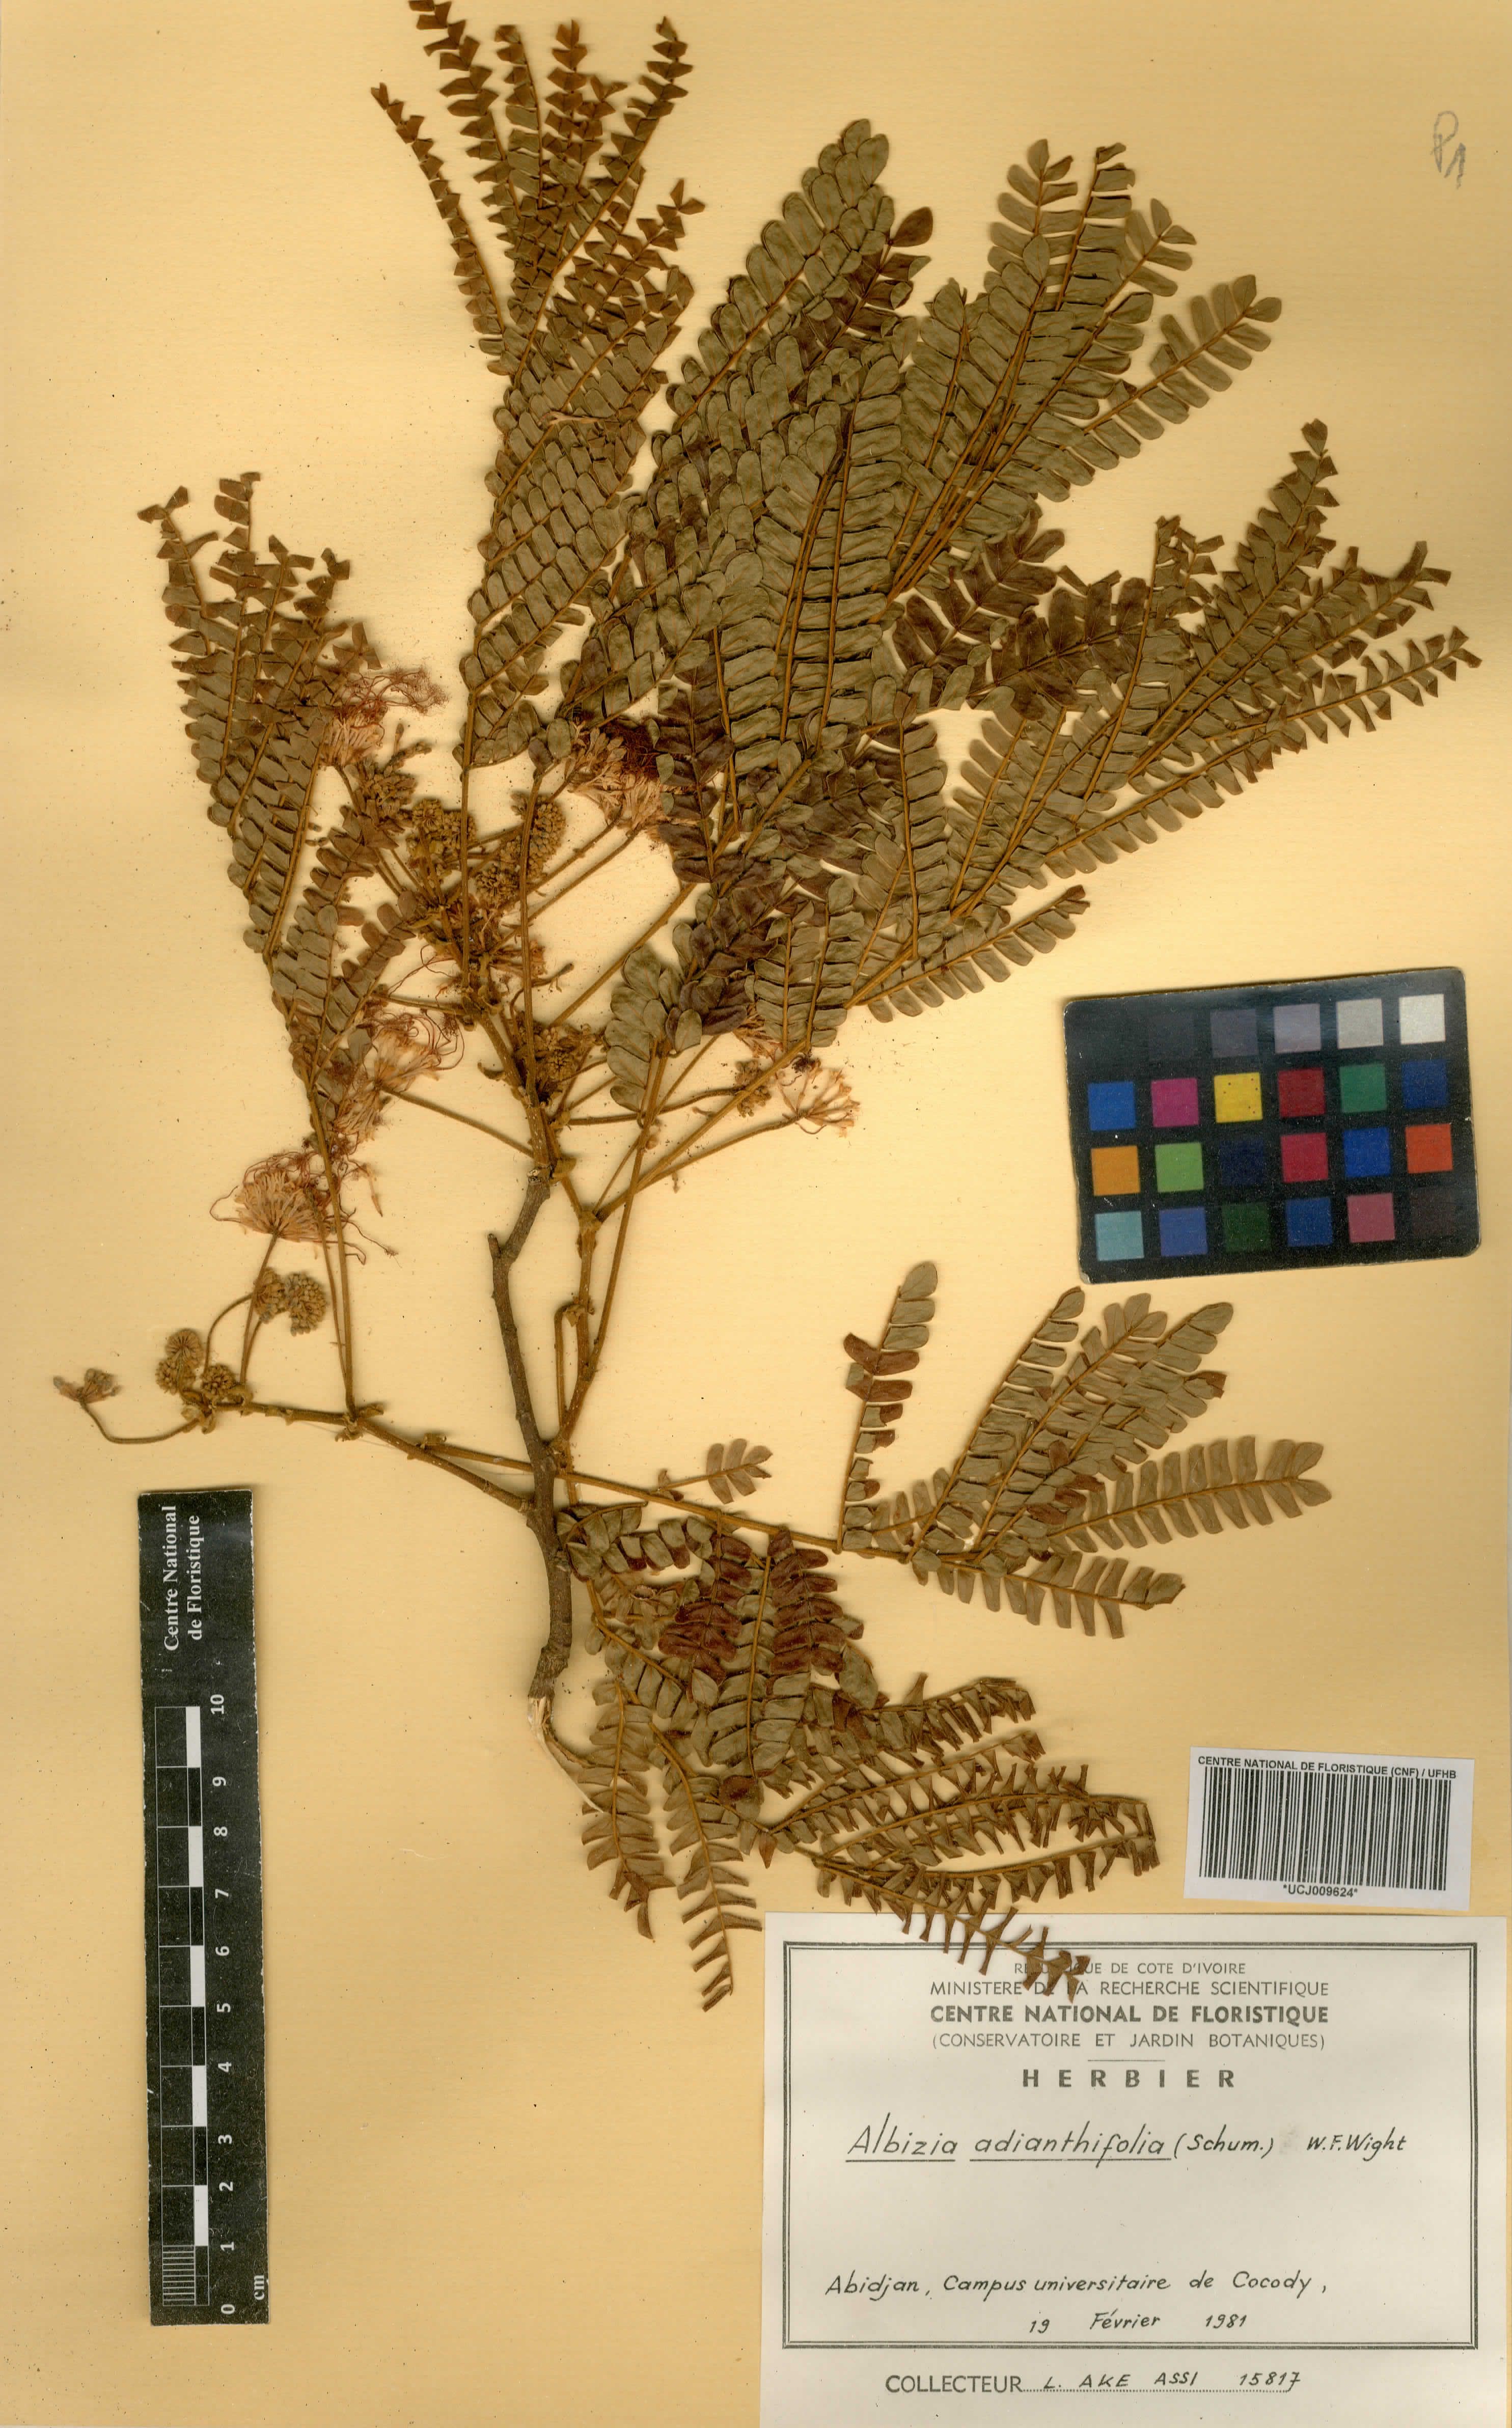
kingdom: Plantae
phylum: Tracheophyta
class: Magnoliopsida
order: Fabales
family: Fabaceae
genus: Albizia
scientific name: Albizia adianthifolia
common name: West african albizia
